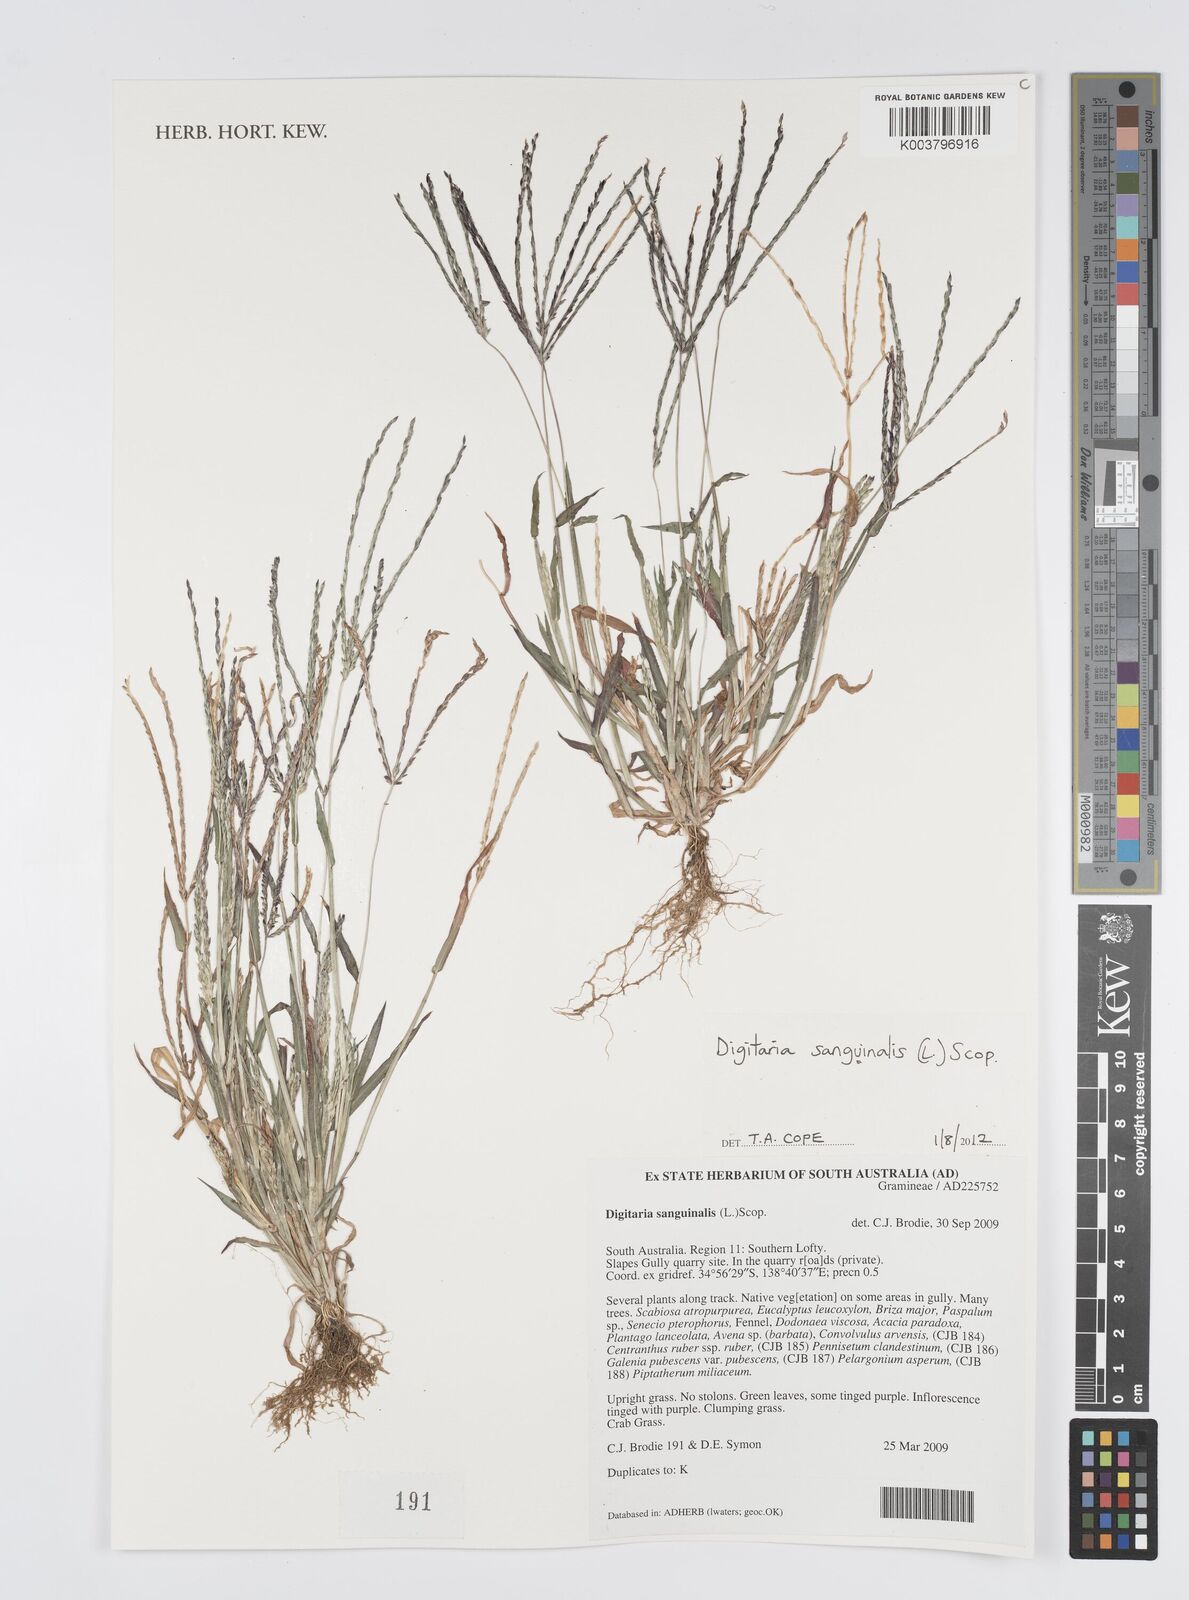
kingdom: Plantae
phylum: Tracheophyta
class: Liliopsida
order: Poales
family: Poaceae
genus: Digitaria
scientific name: Digitaria sanguinalis
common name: Hairy crabgrass
